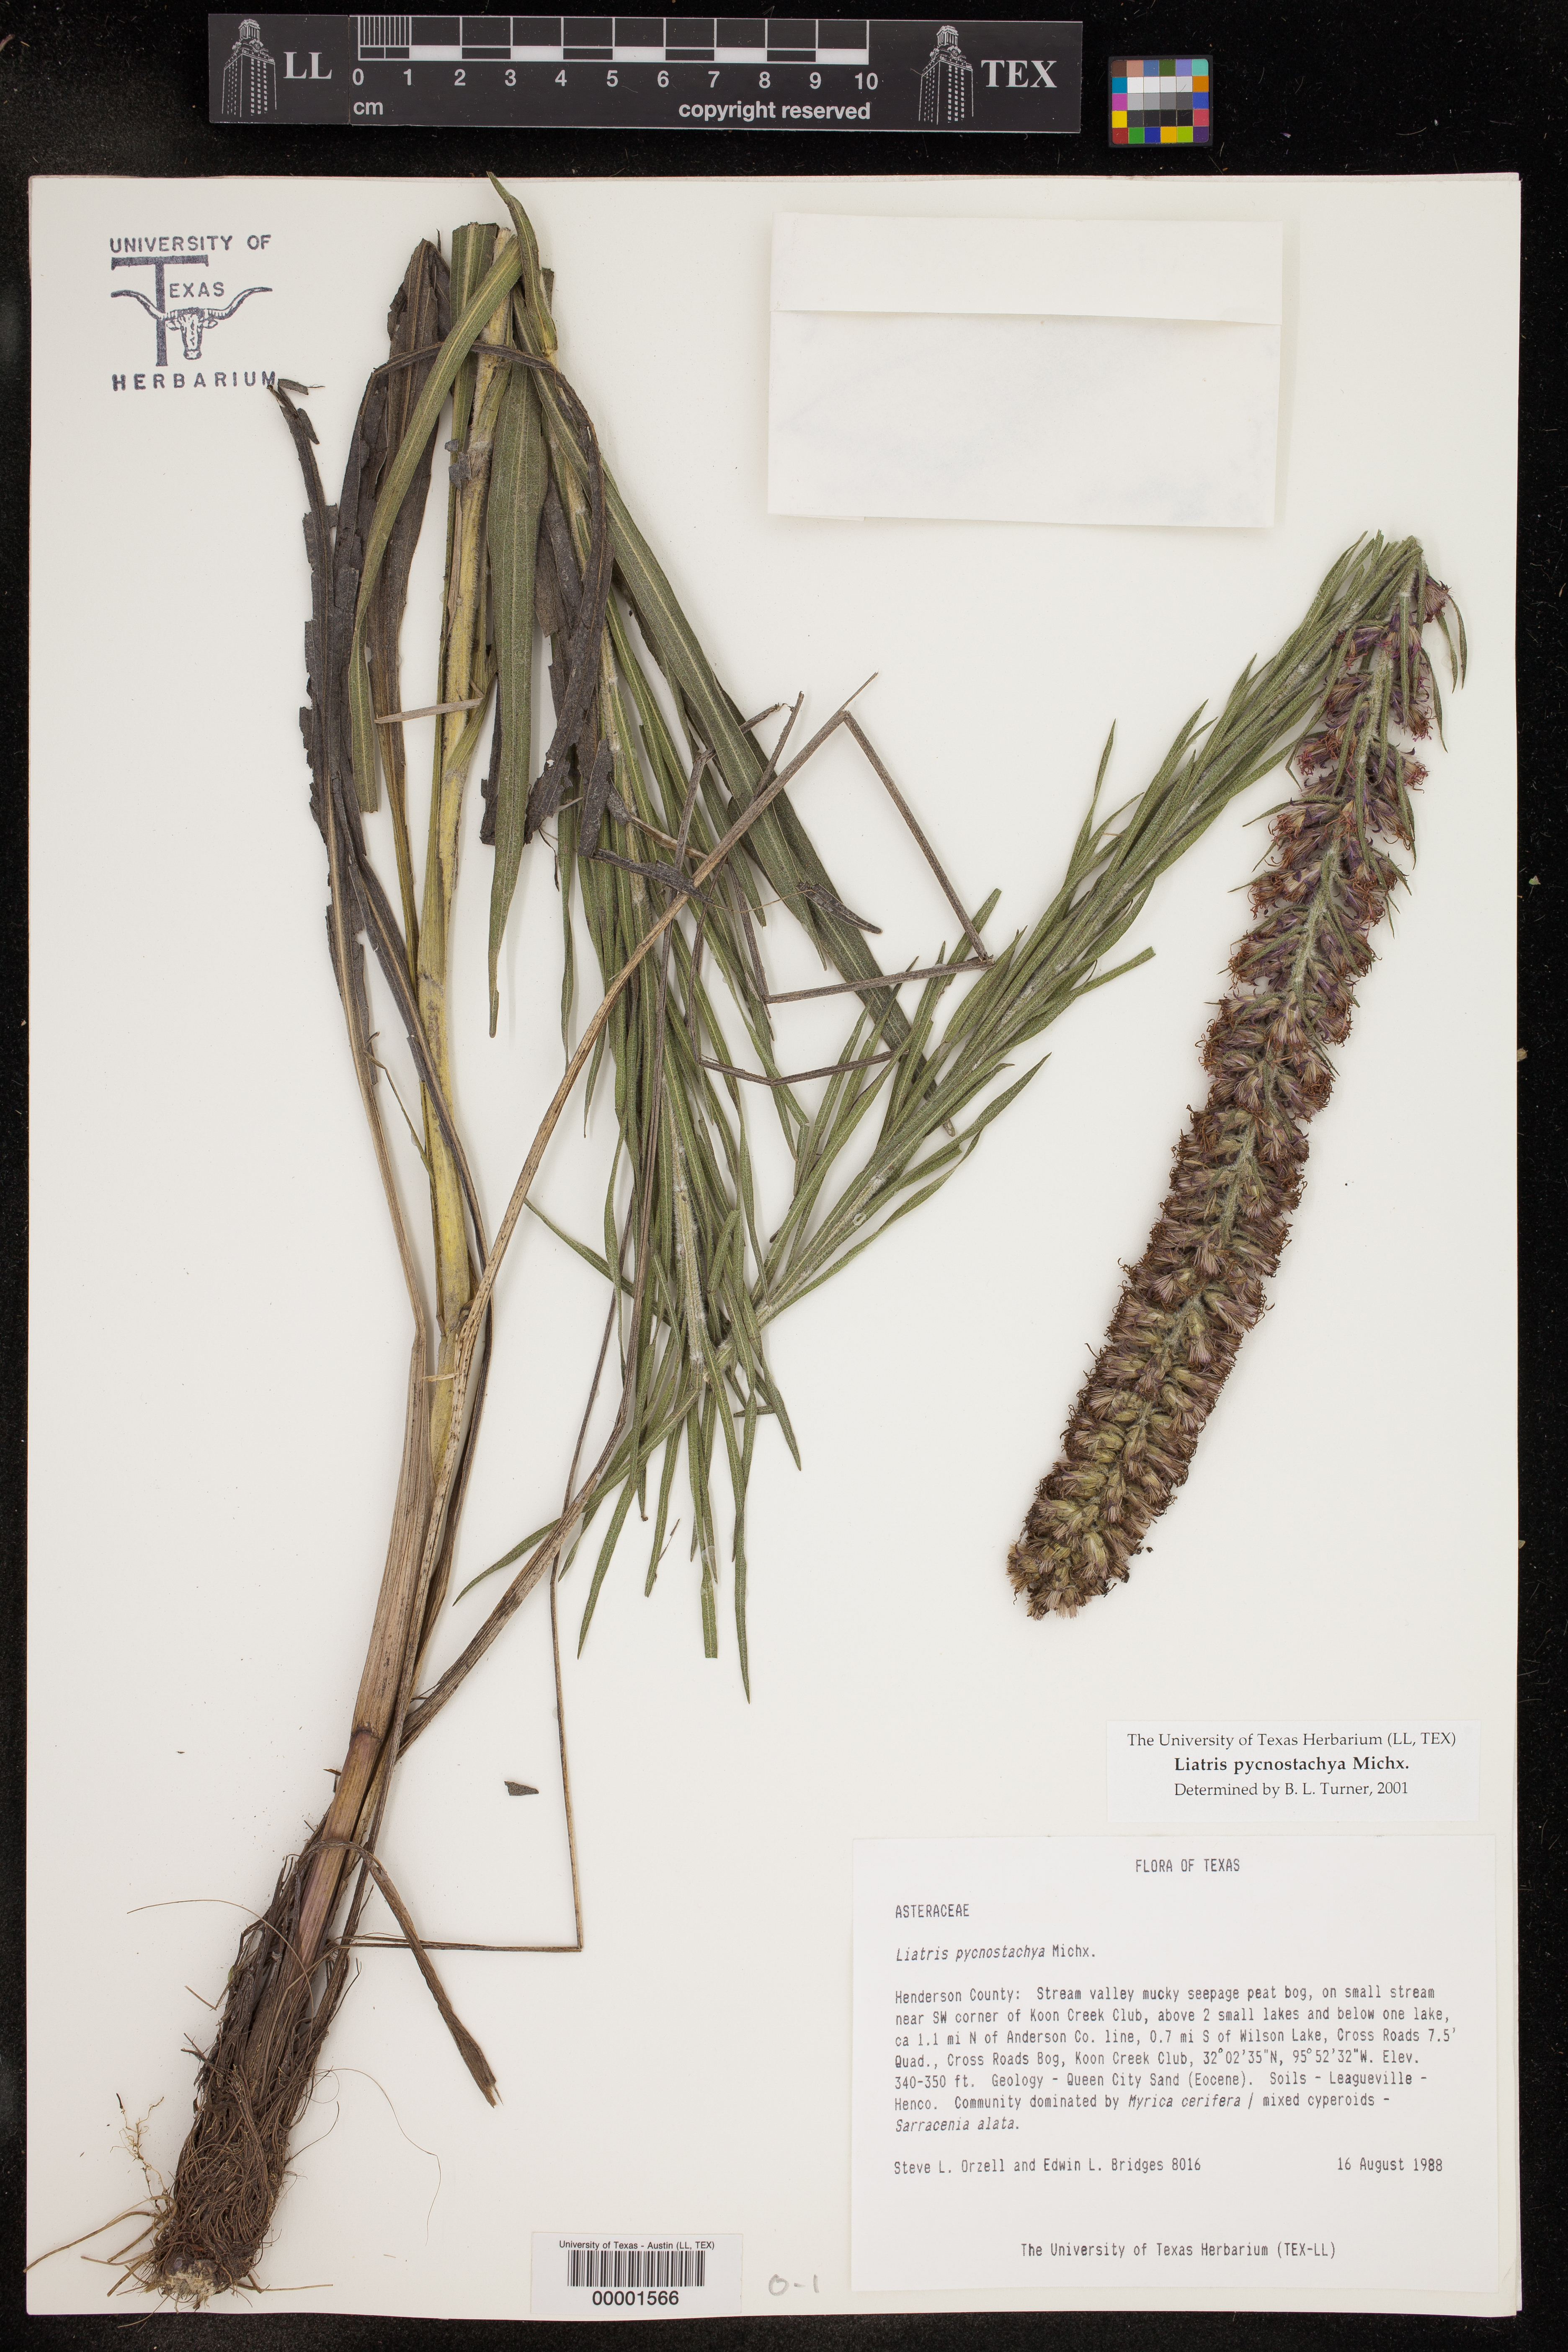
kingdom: Plantae
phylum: Tracheophyta
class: Magnoliopsida
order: Asterales
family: Asteraceae
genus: Liatris
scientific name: Liatris pycnostachya
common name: Cattail gayfeather
